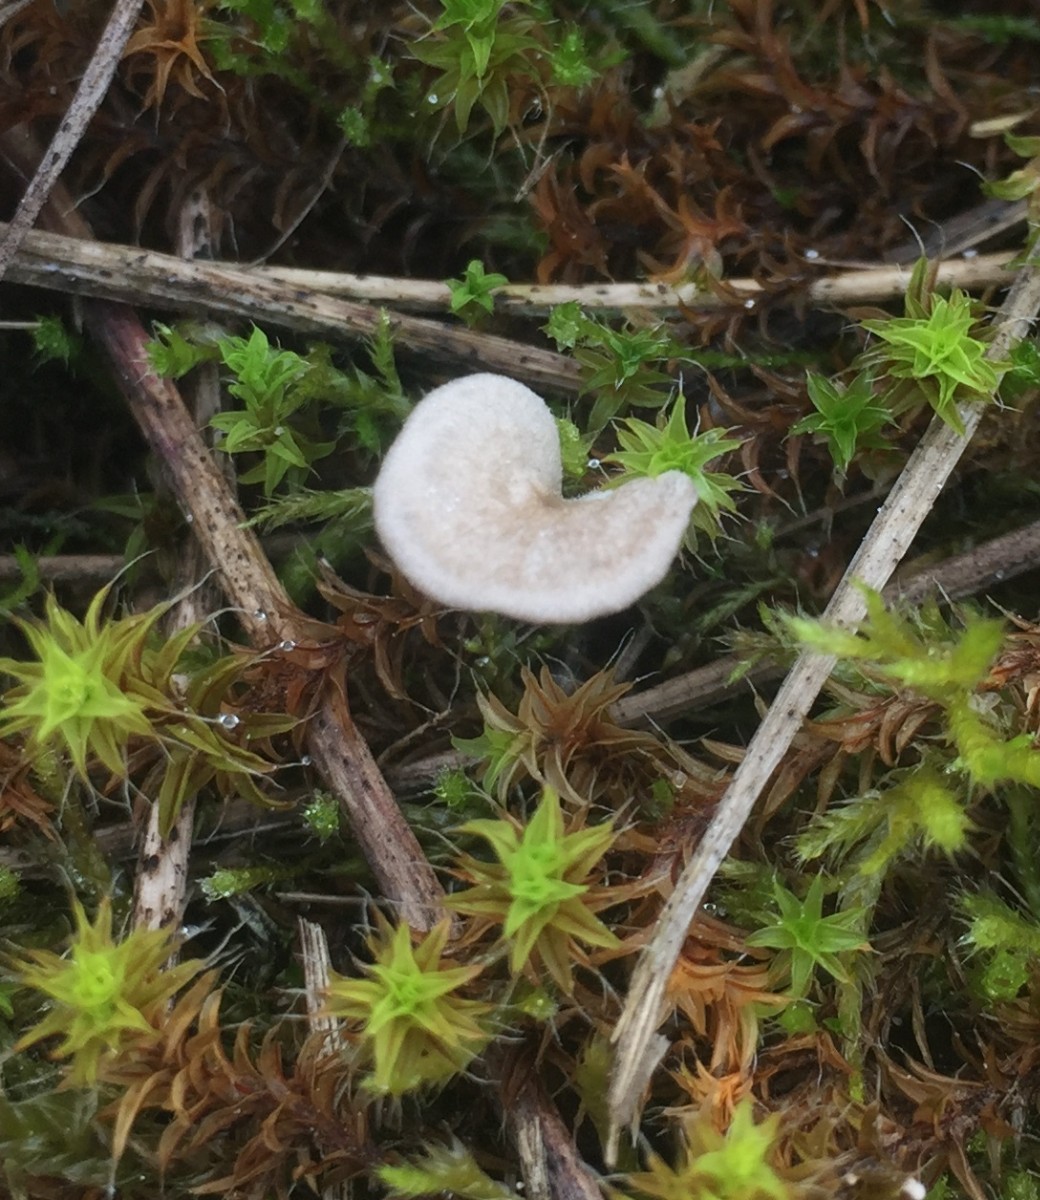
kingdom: Fungi
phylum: Basidiomycota
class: Agaricomycetes
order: Agaricales
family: Hygrophoraceae
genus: Arrhenia
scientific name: Arrhenia spathulata
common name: skæv fontænehat
